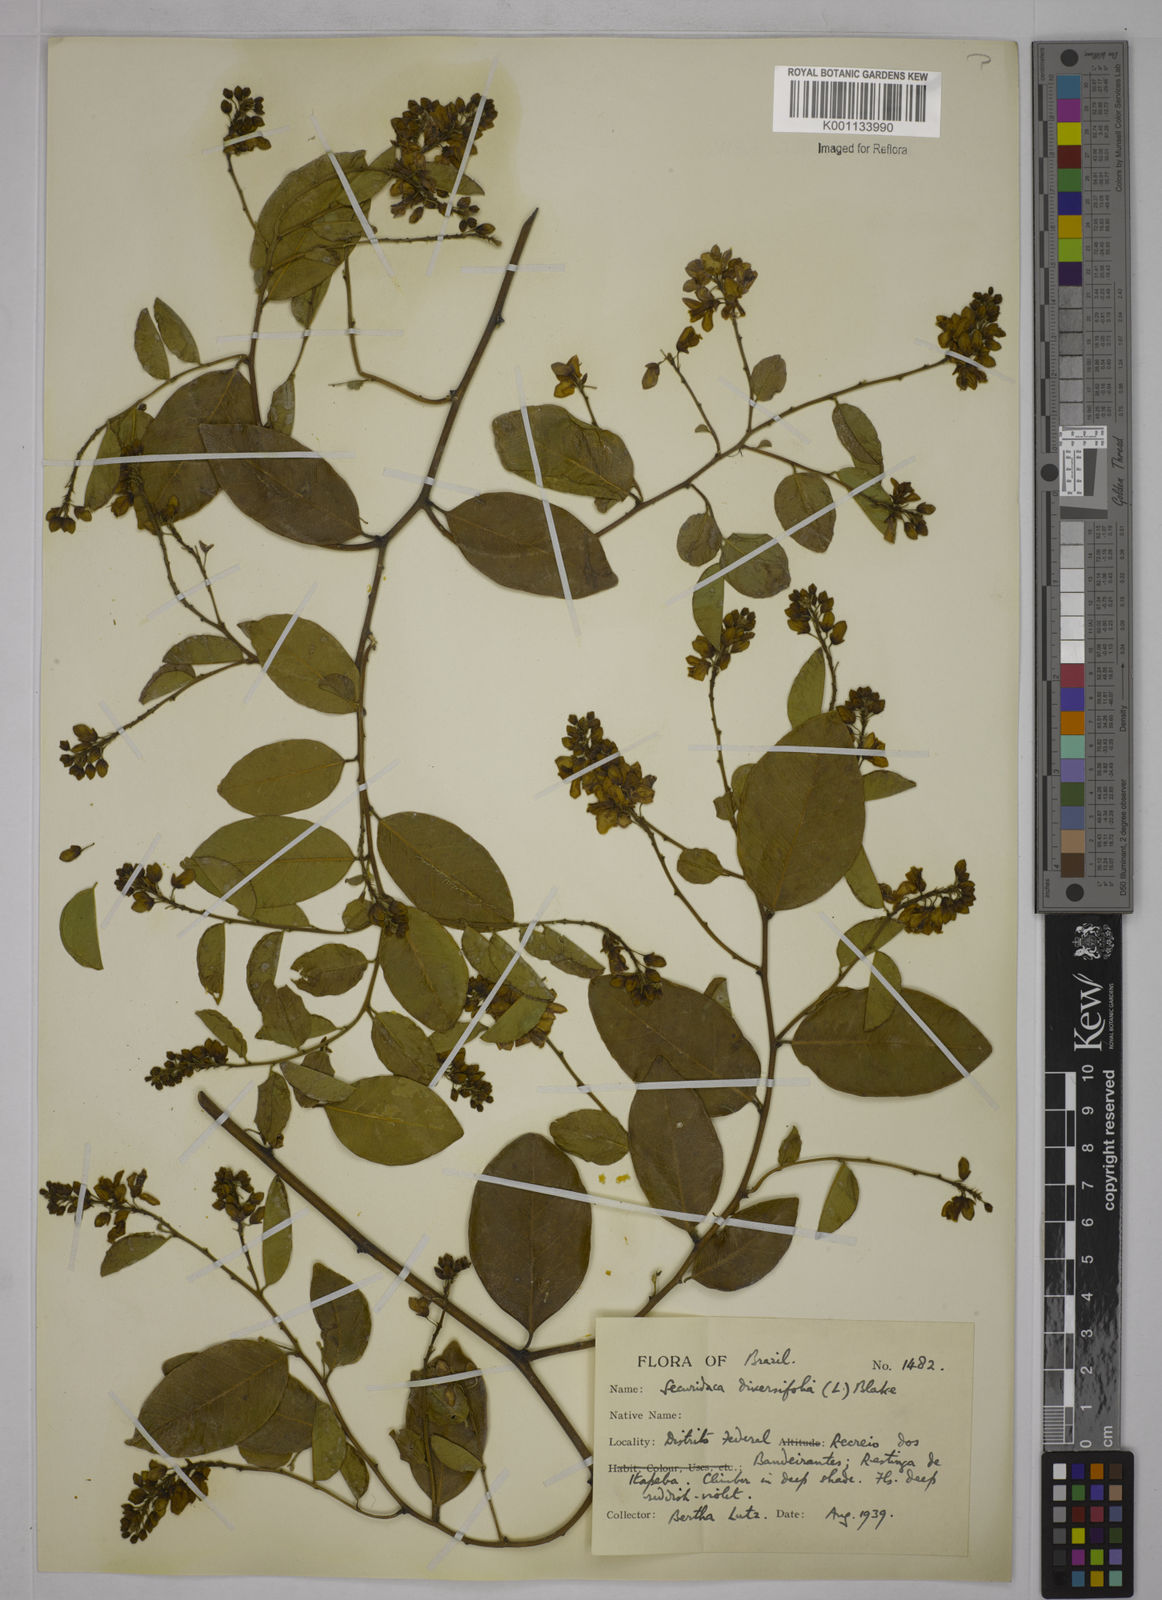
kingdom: Plantae
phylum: Tracheophyta
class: Magnoliopsida
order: Fabales
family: Polygalaceae
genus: Securidaca
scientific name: Securidaca diversifolia
